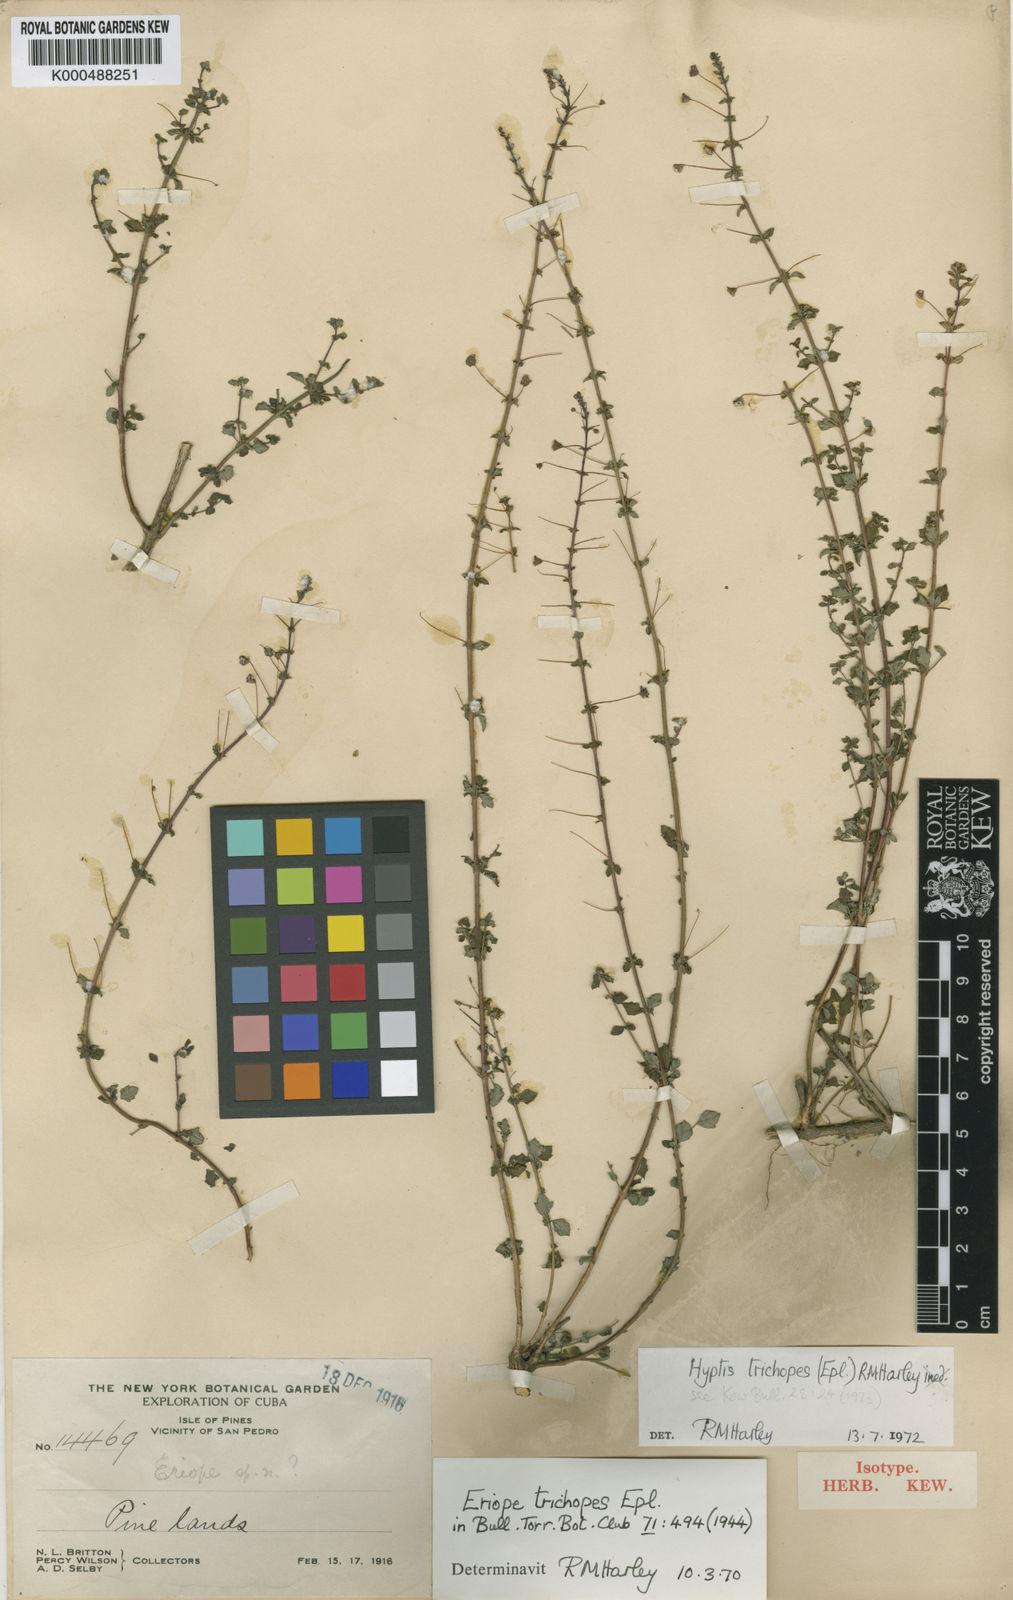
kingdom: Plantae
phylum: Tracheophyta
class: Magnoliopsida
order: Lamiales
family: Lamiaceae
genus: Condea
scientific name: Condea trichopes
